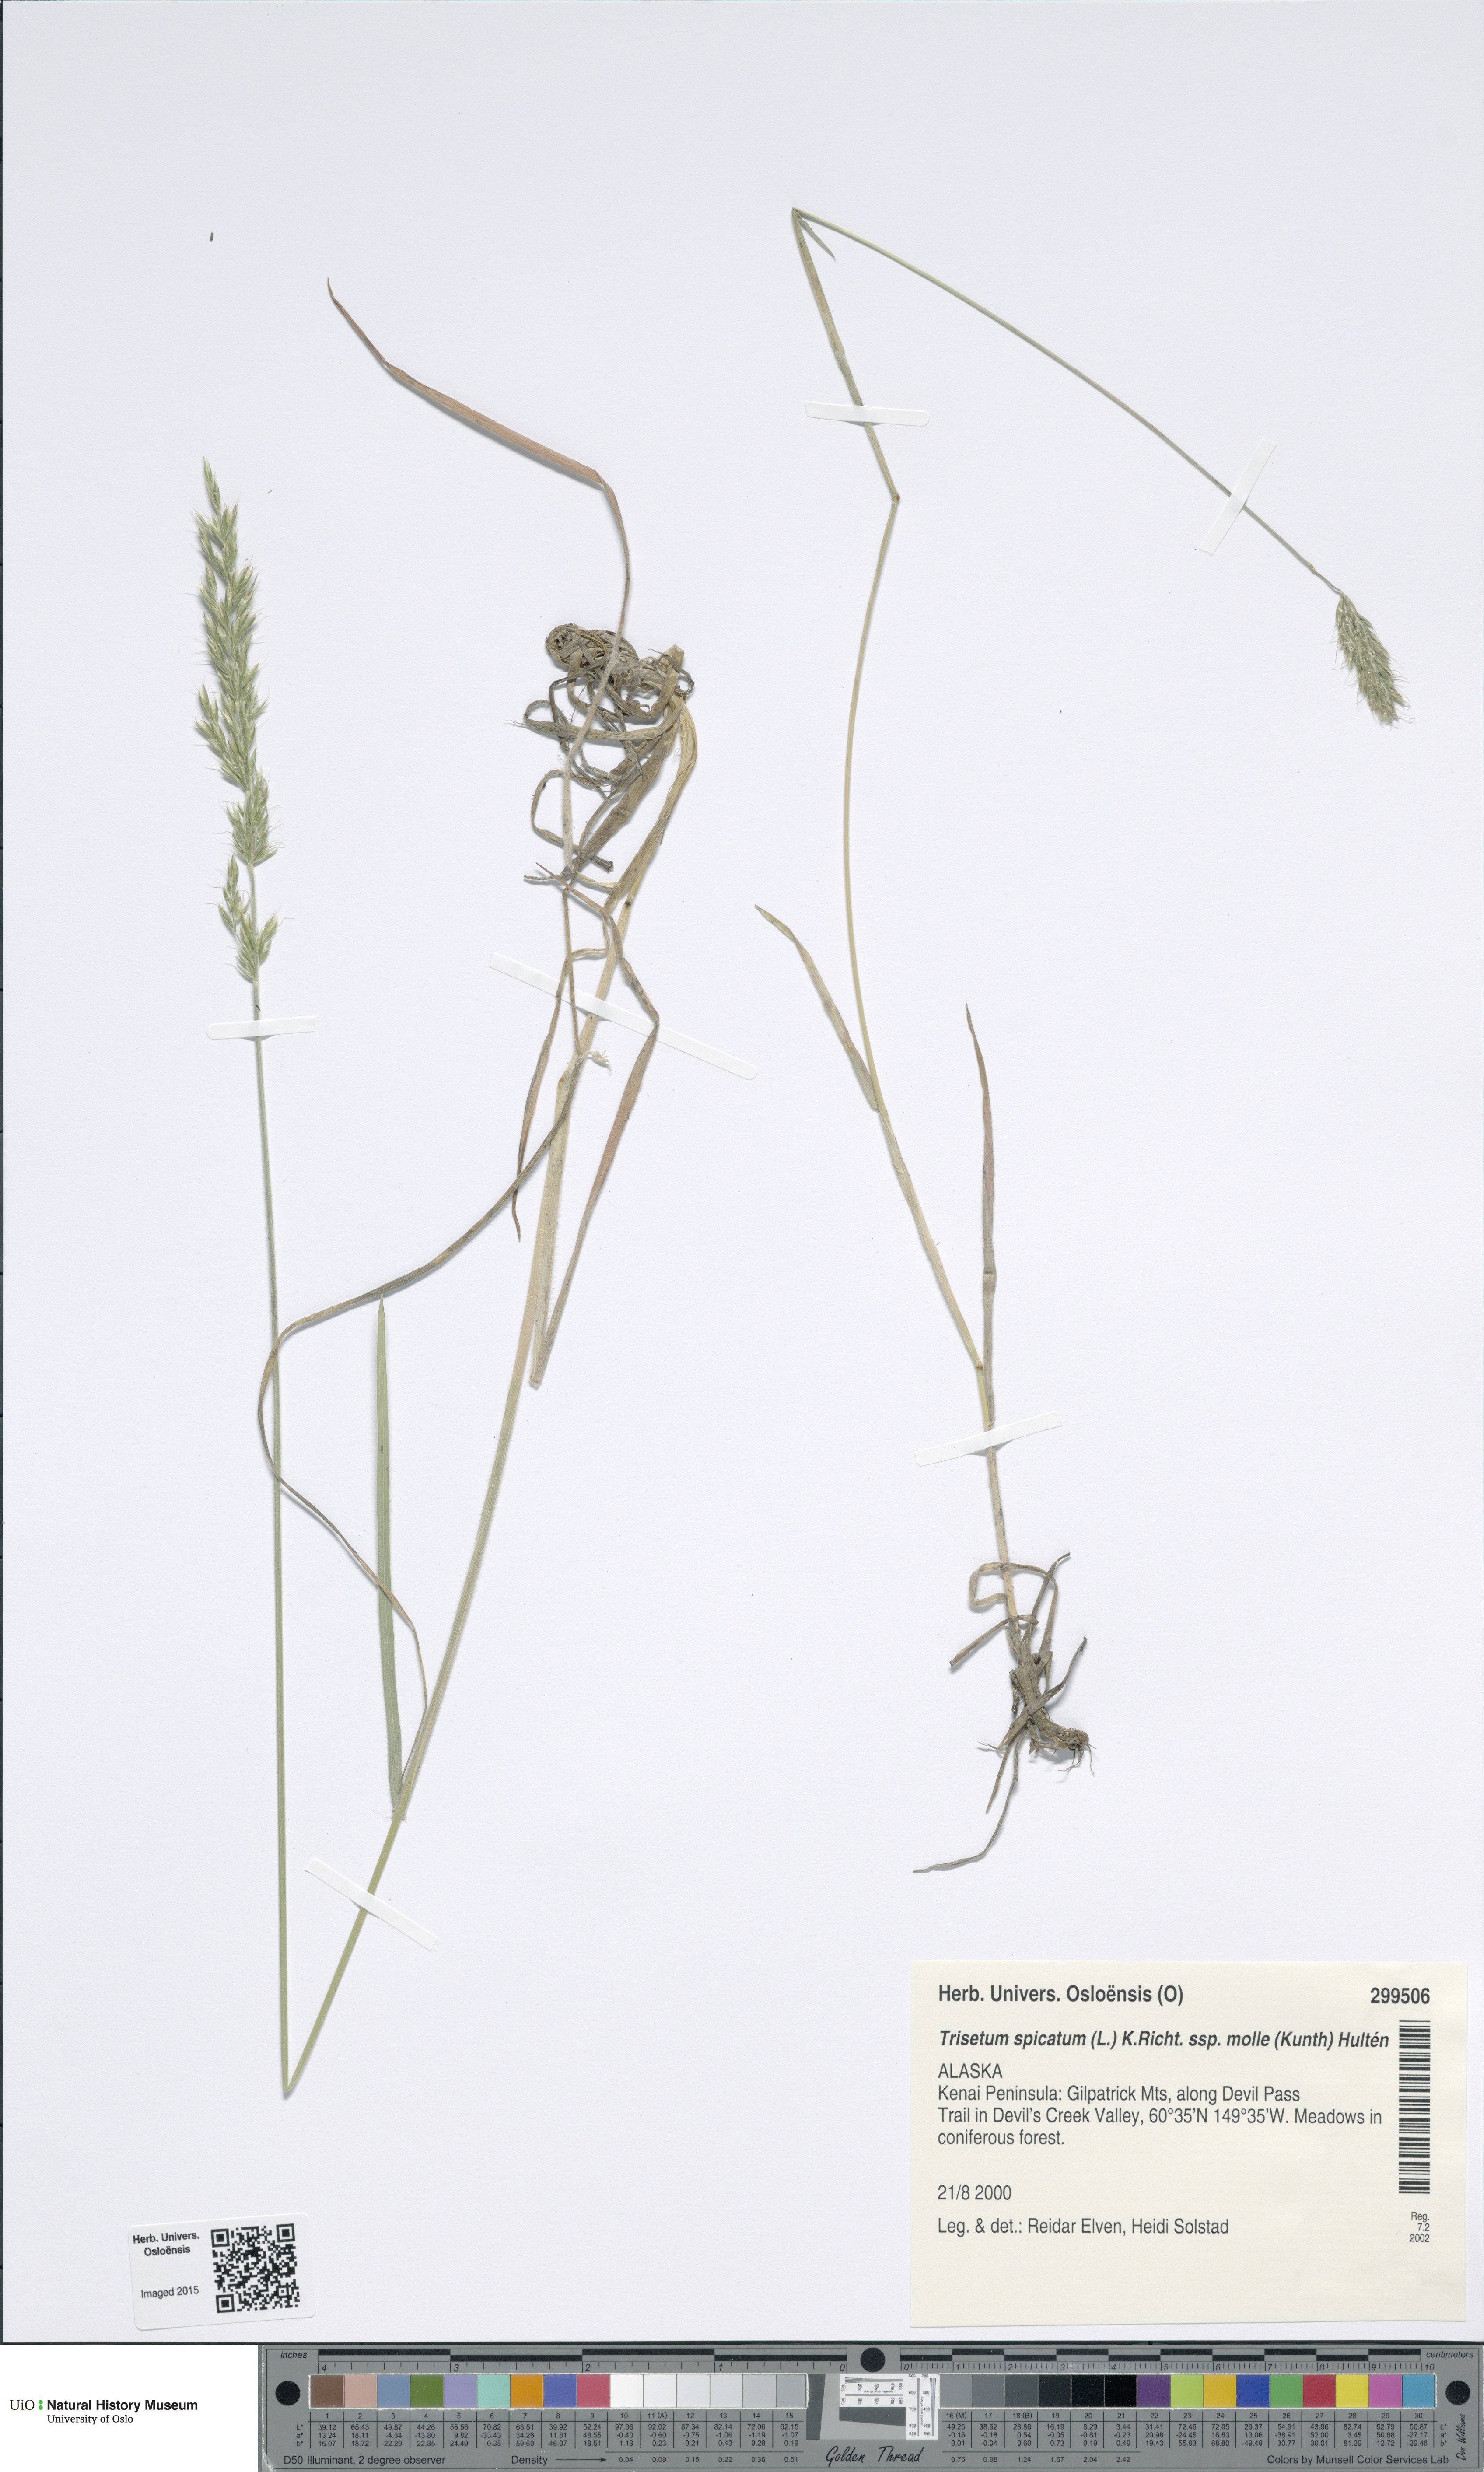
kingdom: Plantae
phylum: Tracheophyta
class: Liliopsida
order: Poales
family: Poaceae
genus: Koeleria
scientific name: Koeleria spicata
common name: Mountain trisetum
